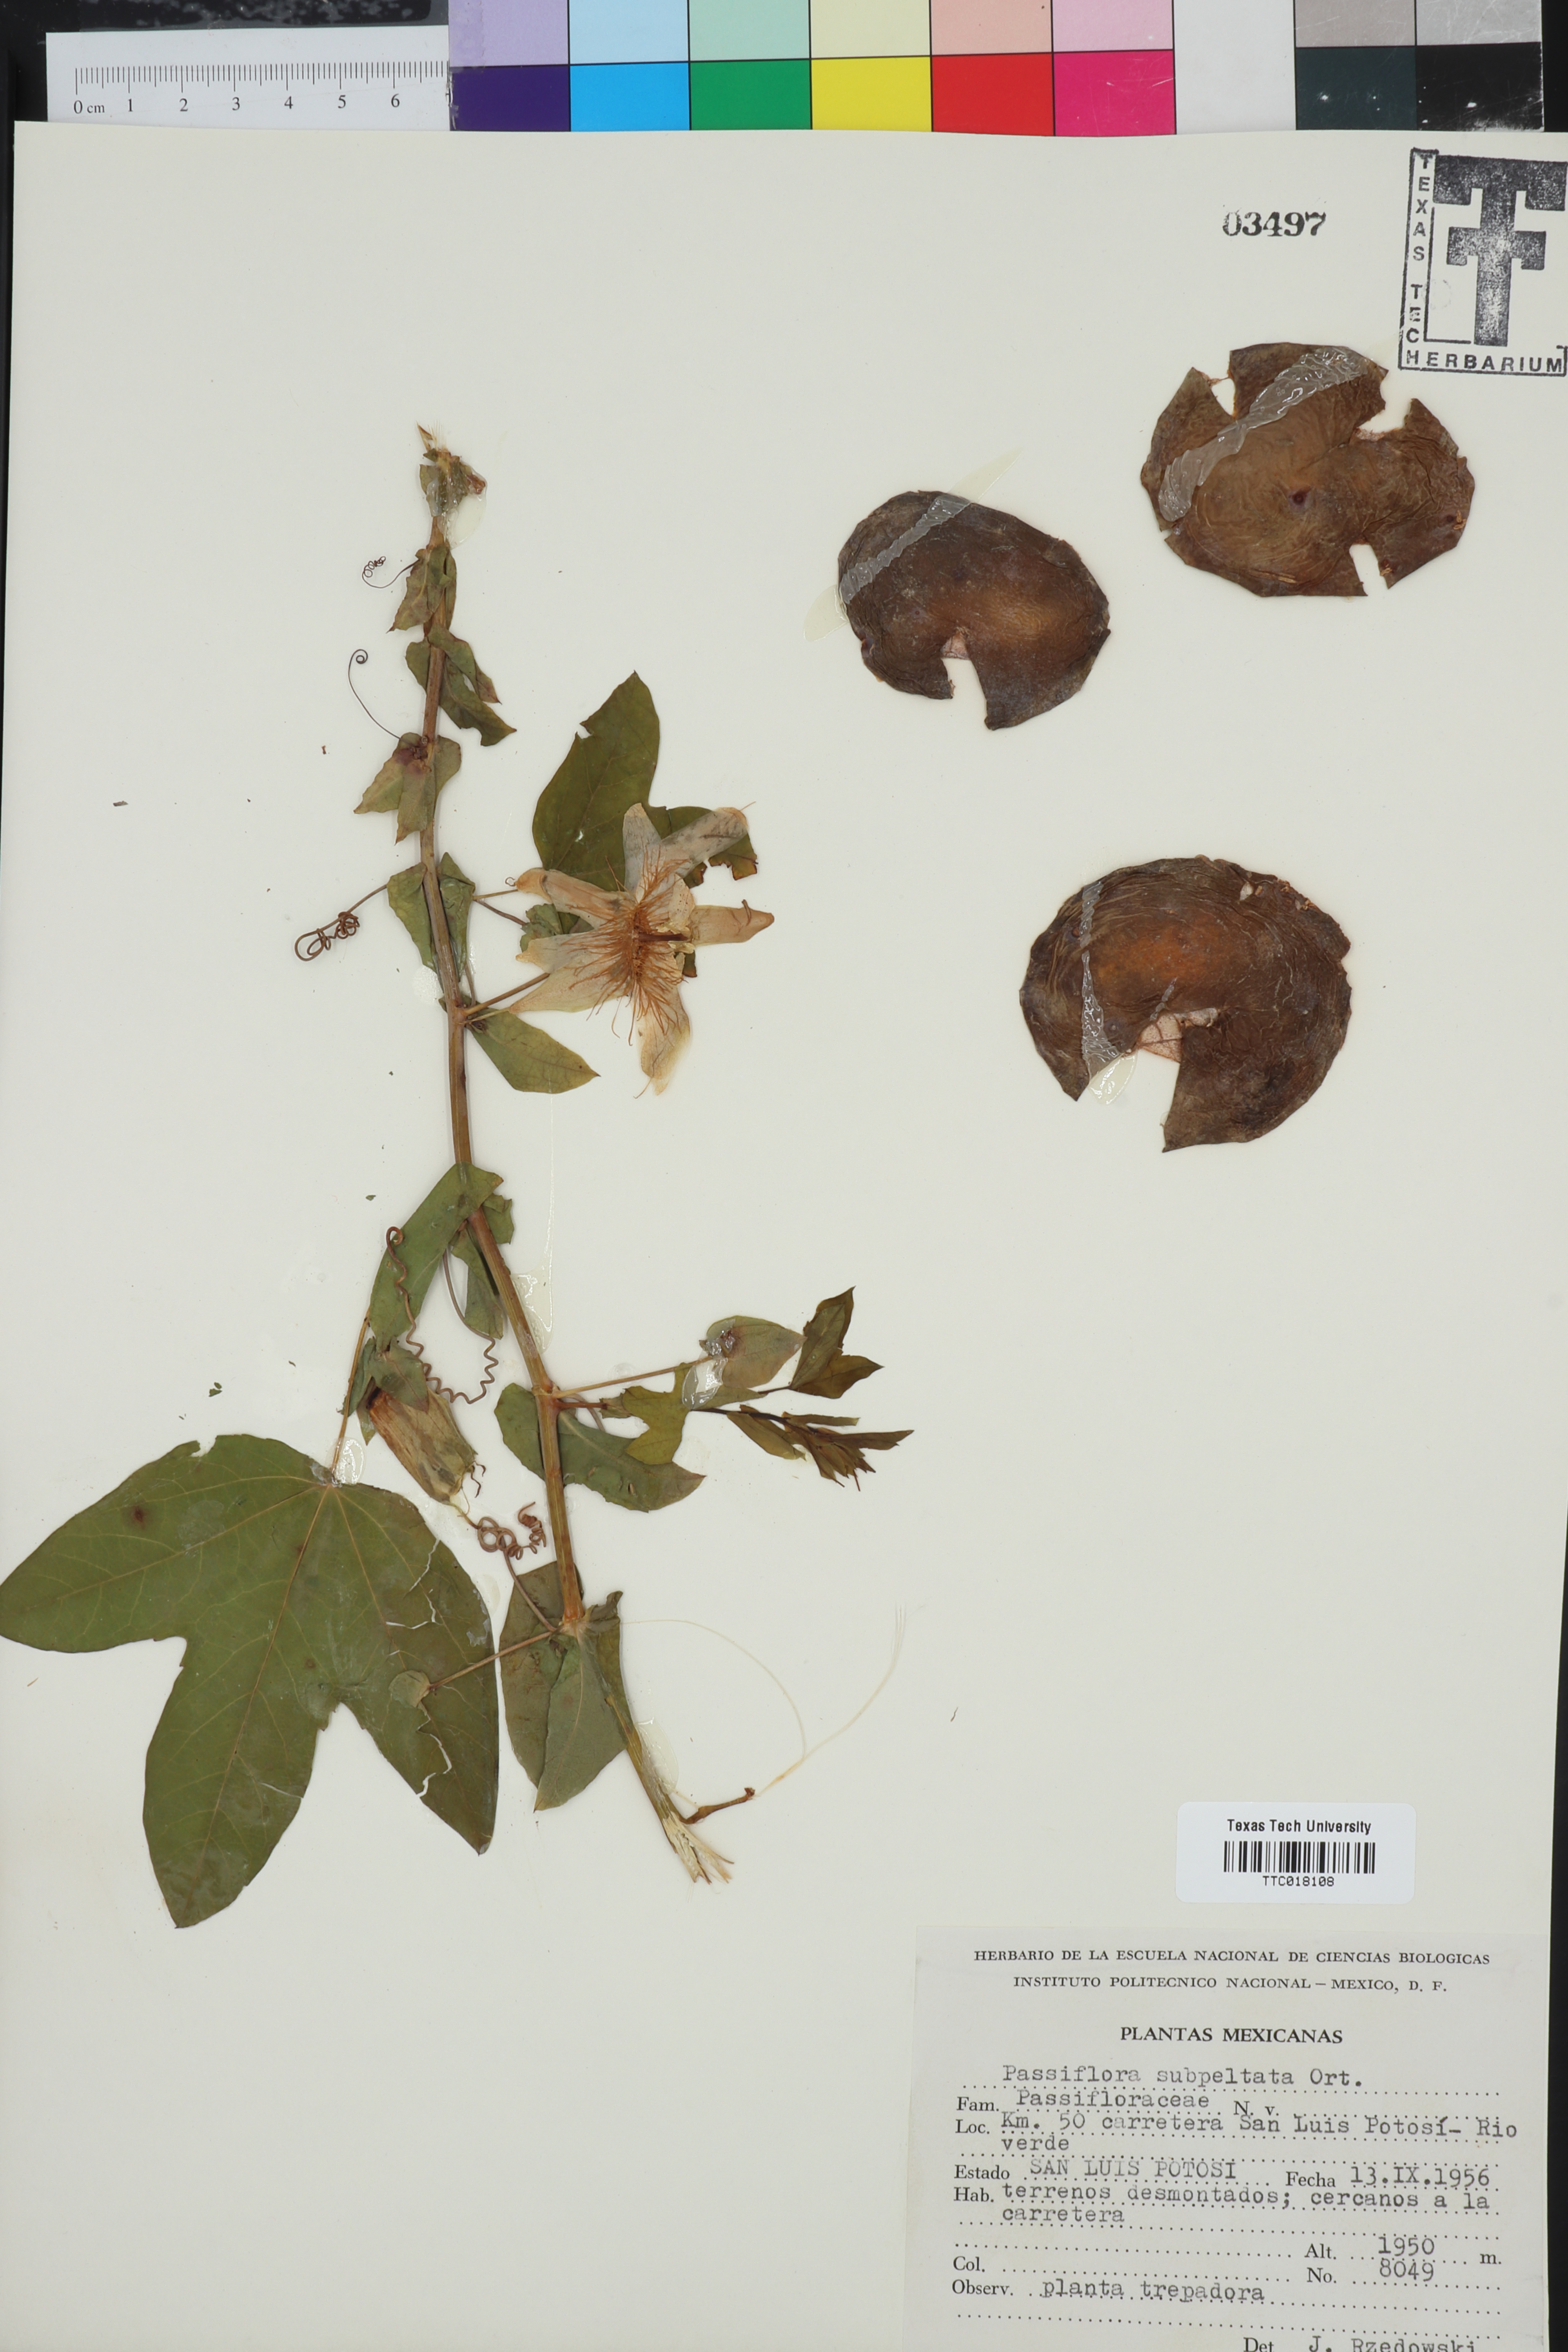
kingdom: Plantae
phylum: Tracheophyta
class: Magnoliopsida
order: Malpighiales
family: Passifloraceae
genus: Passiflora
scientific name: Passiflora subpeltata
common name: White passionflower
